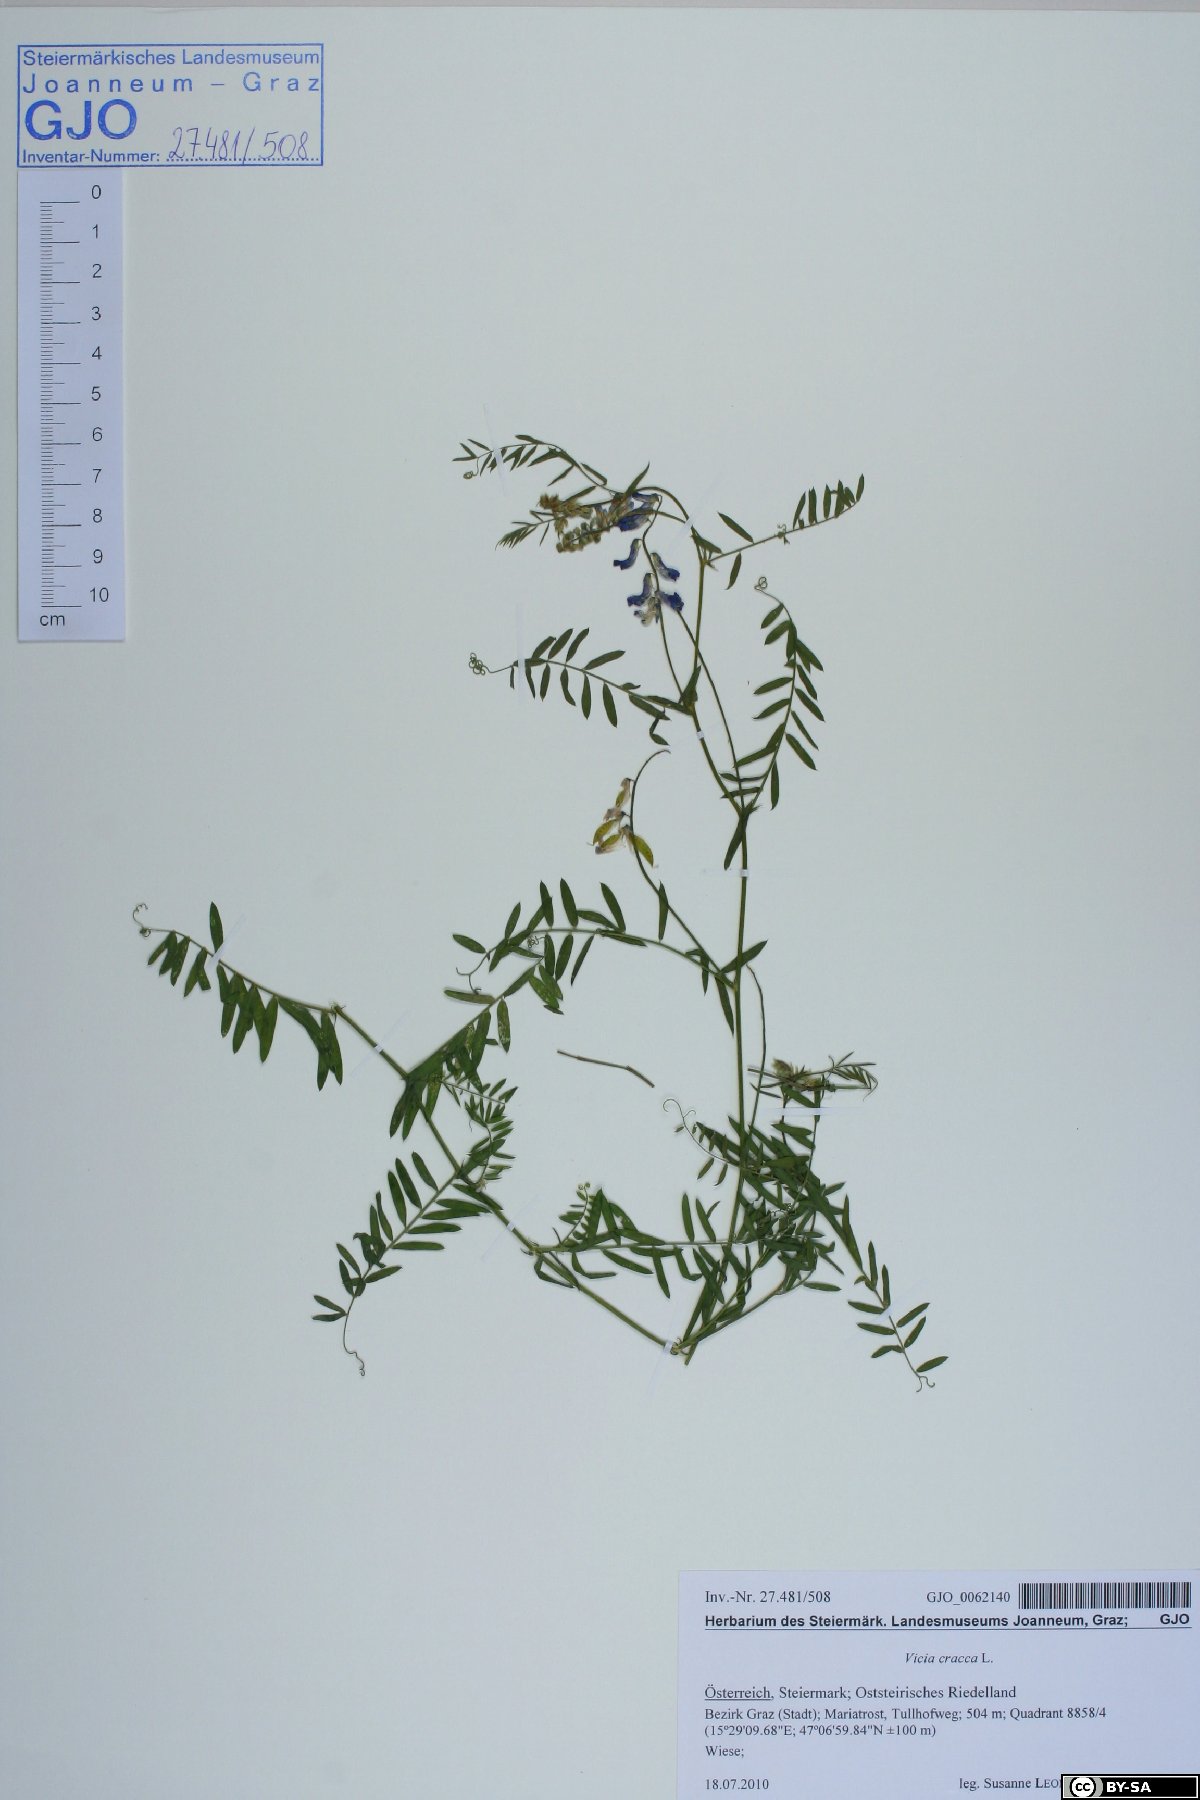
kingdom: Plantae
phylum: Tracheophyta
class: Magnoliopsida
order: Fabales
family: Fabaceae
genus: Vicia
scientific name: Vicia cracca
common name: Bird vetch
